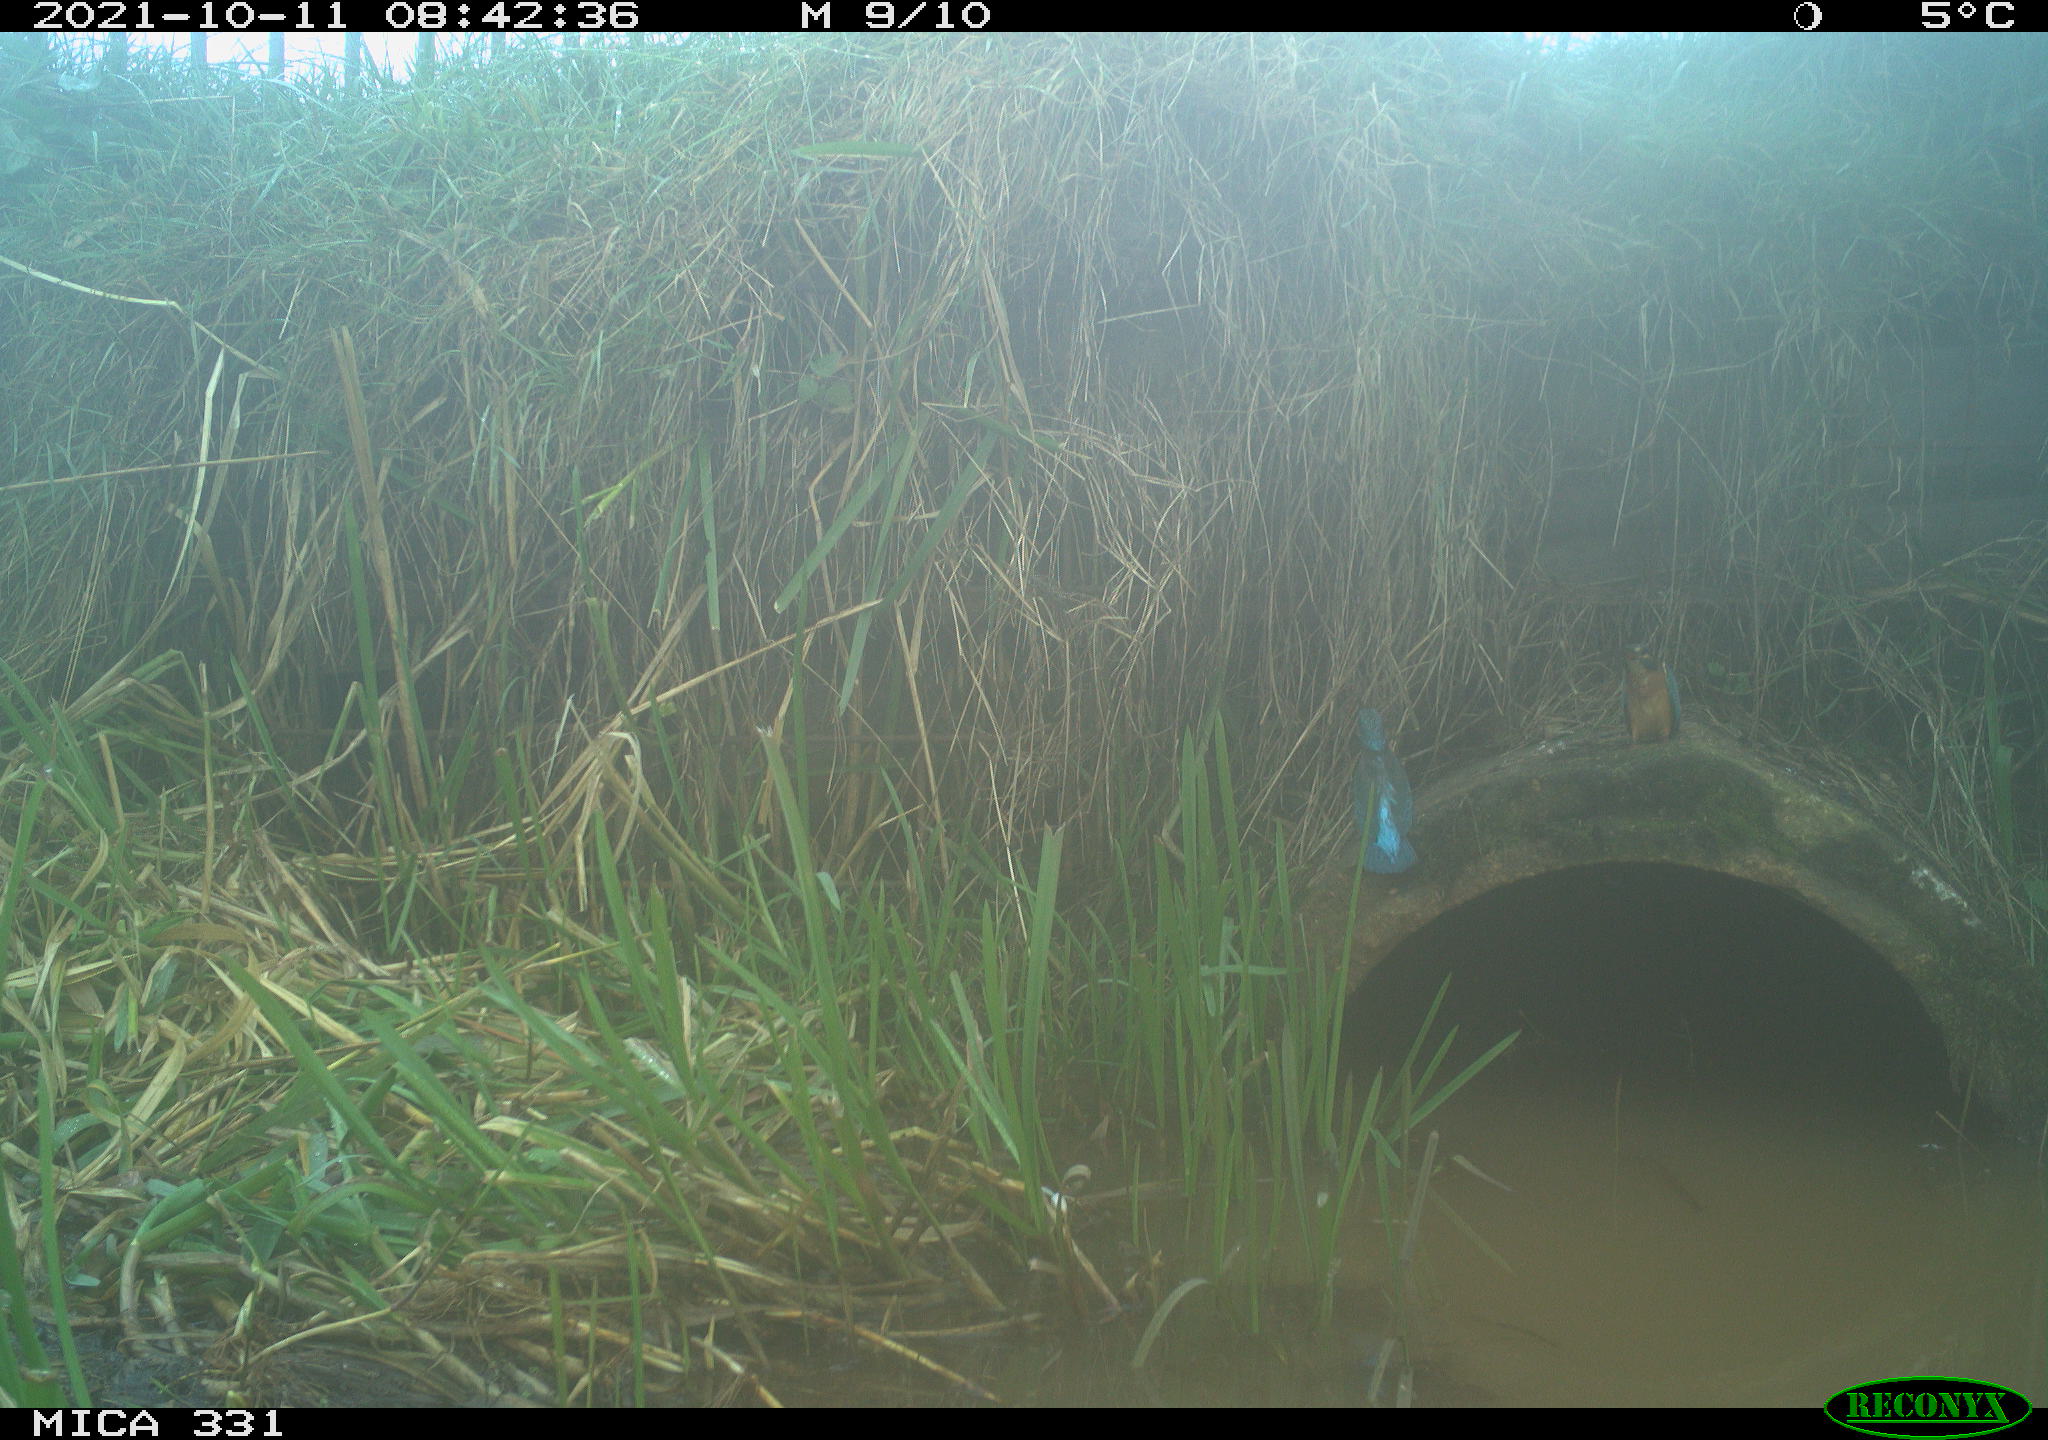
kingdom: Animalia
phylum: Chordata
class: Aves
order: Coraciiformes
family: Alcedinidae
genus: Alcedo
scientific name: Alcedo atthis
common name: Common kingfisher
